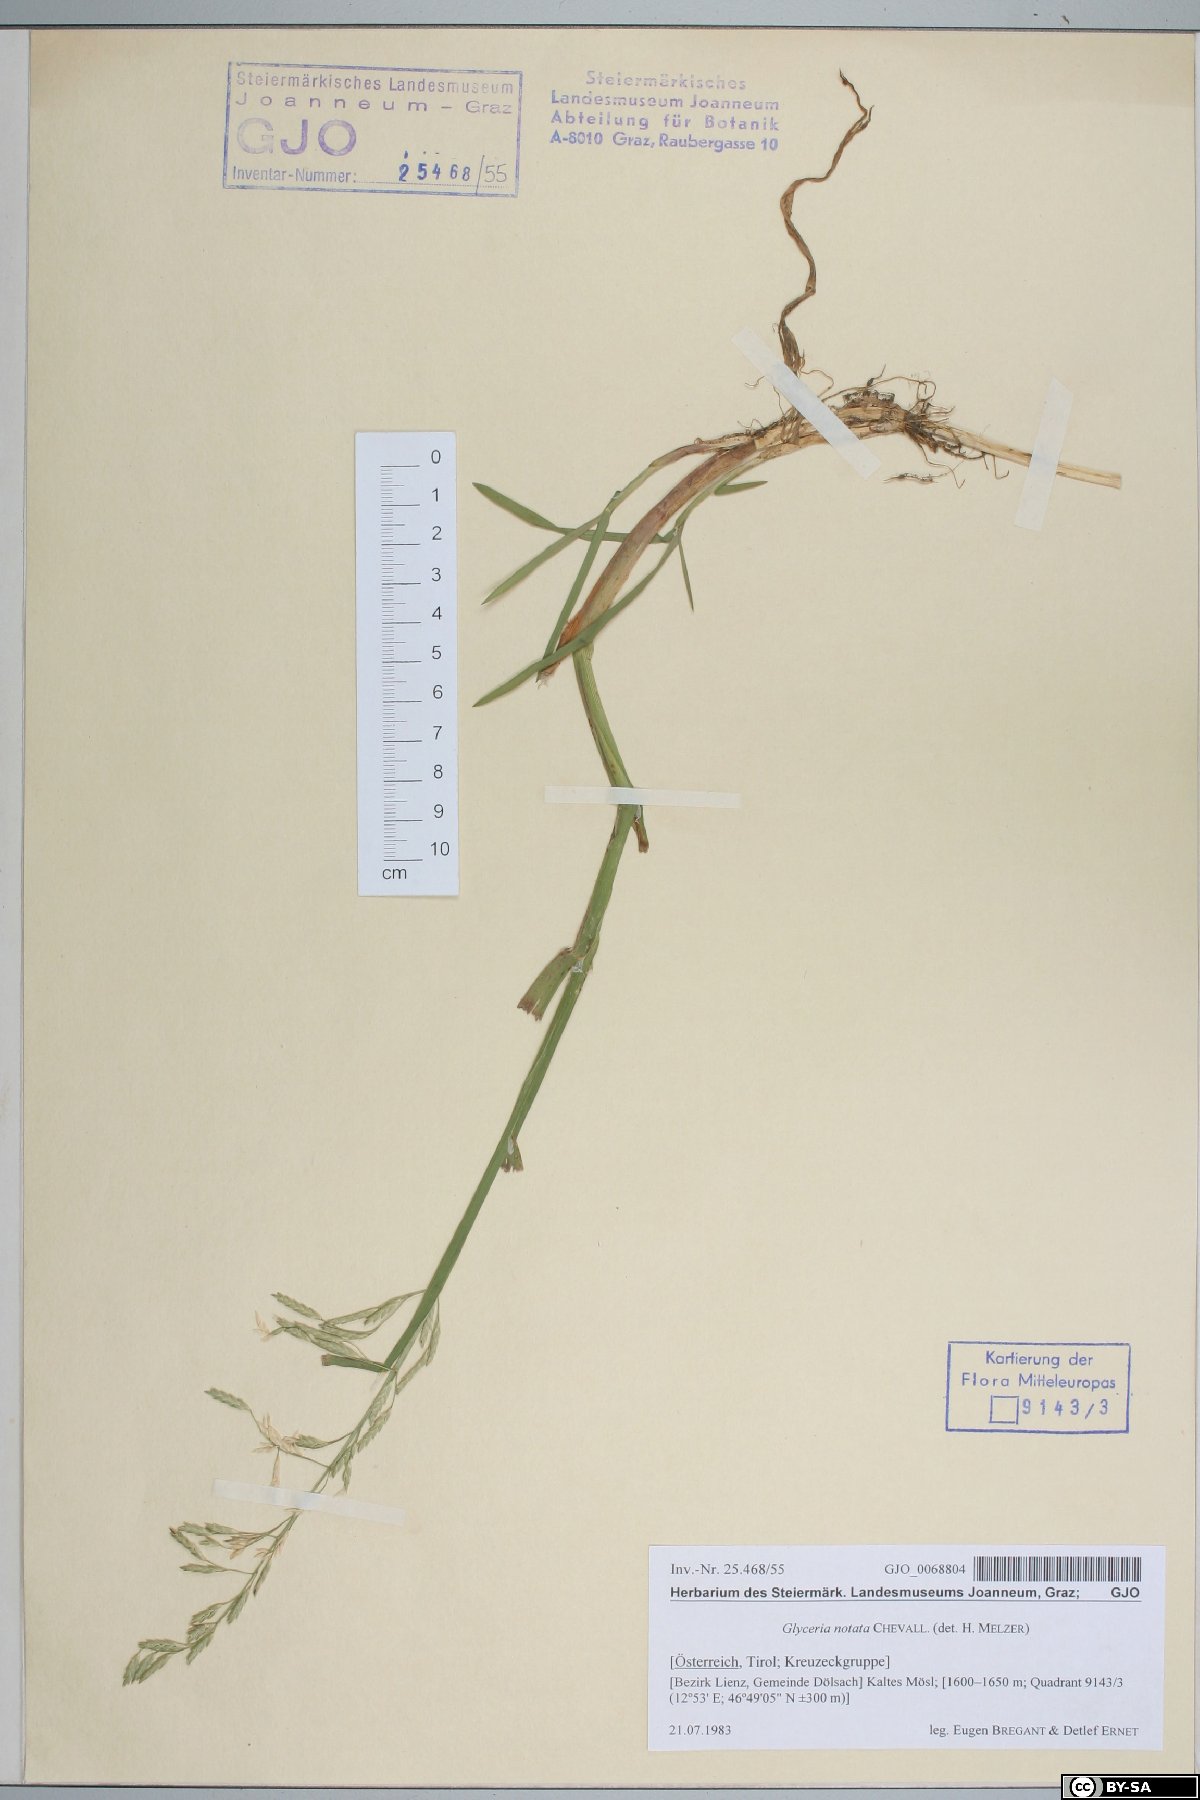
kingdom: Plantae
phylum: Tracheophyta
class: Liliopsida
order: Poales
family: Poaceae
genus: Glyceria
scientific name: Glyceria notata
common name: Plicate sweet-grass
